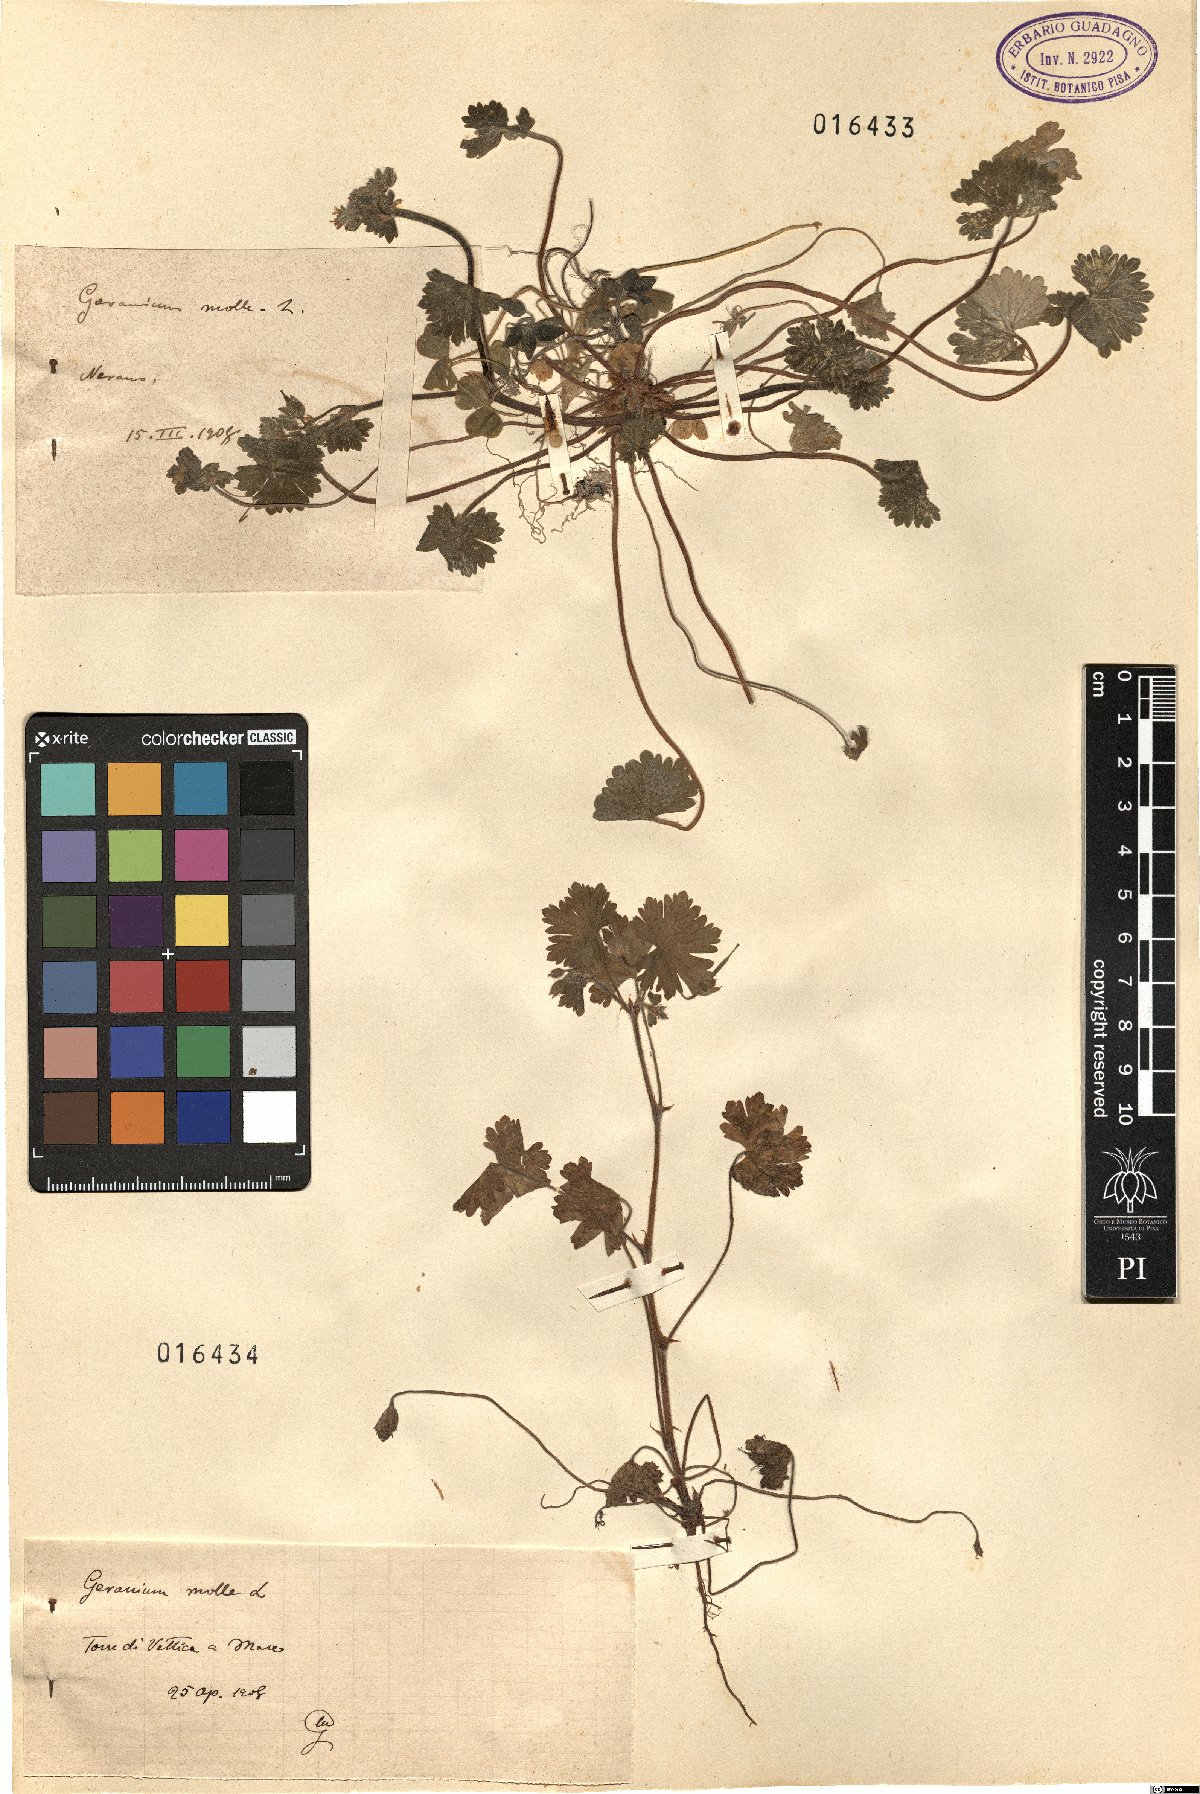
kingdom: Plantae
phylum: Tracheophyta
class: Magnoliopsida
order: Geraniales
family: Geraniaceae
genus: Geranium
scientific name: Geranium molle
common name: Dove's-foot crane's-bill
